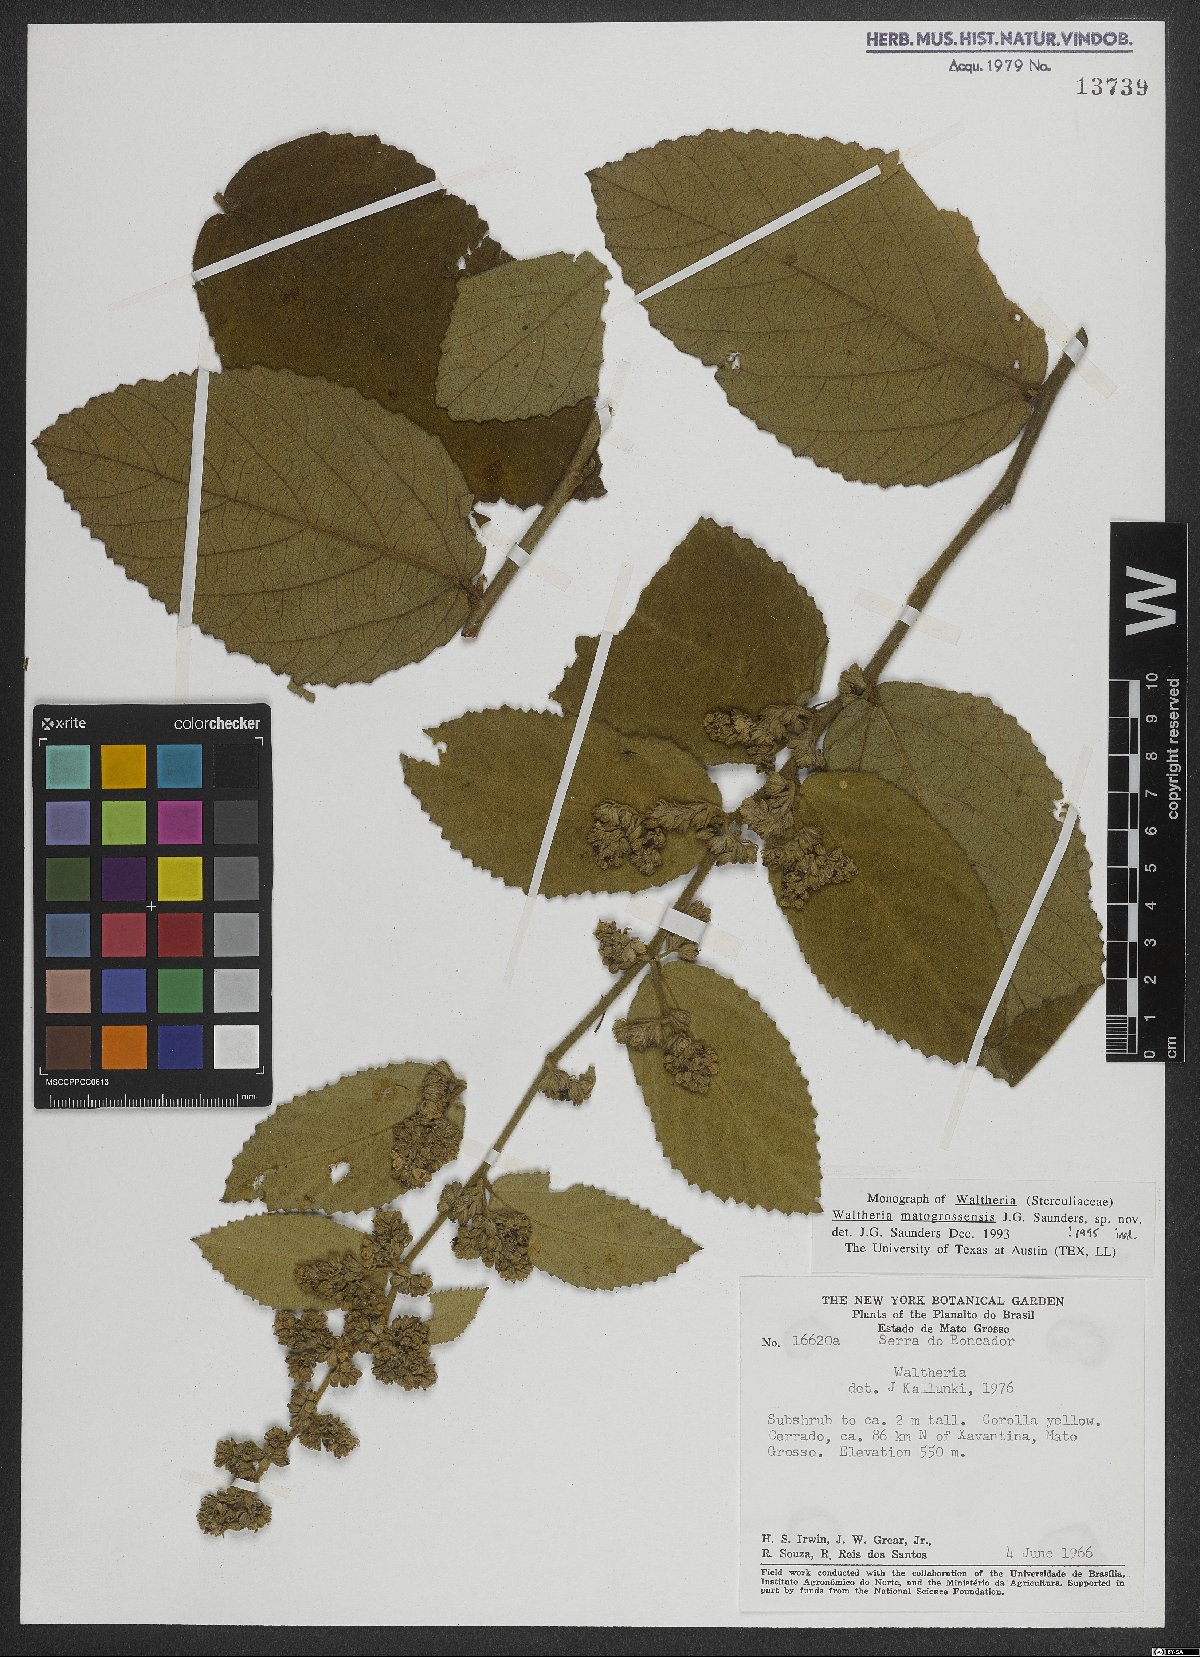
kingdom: Plantae
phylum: Tracheophyta
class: Magnoliopsida
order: Malvales
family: Malvaceae
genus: Waltheria
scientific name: Waltheria matogrossensis
